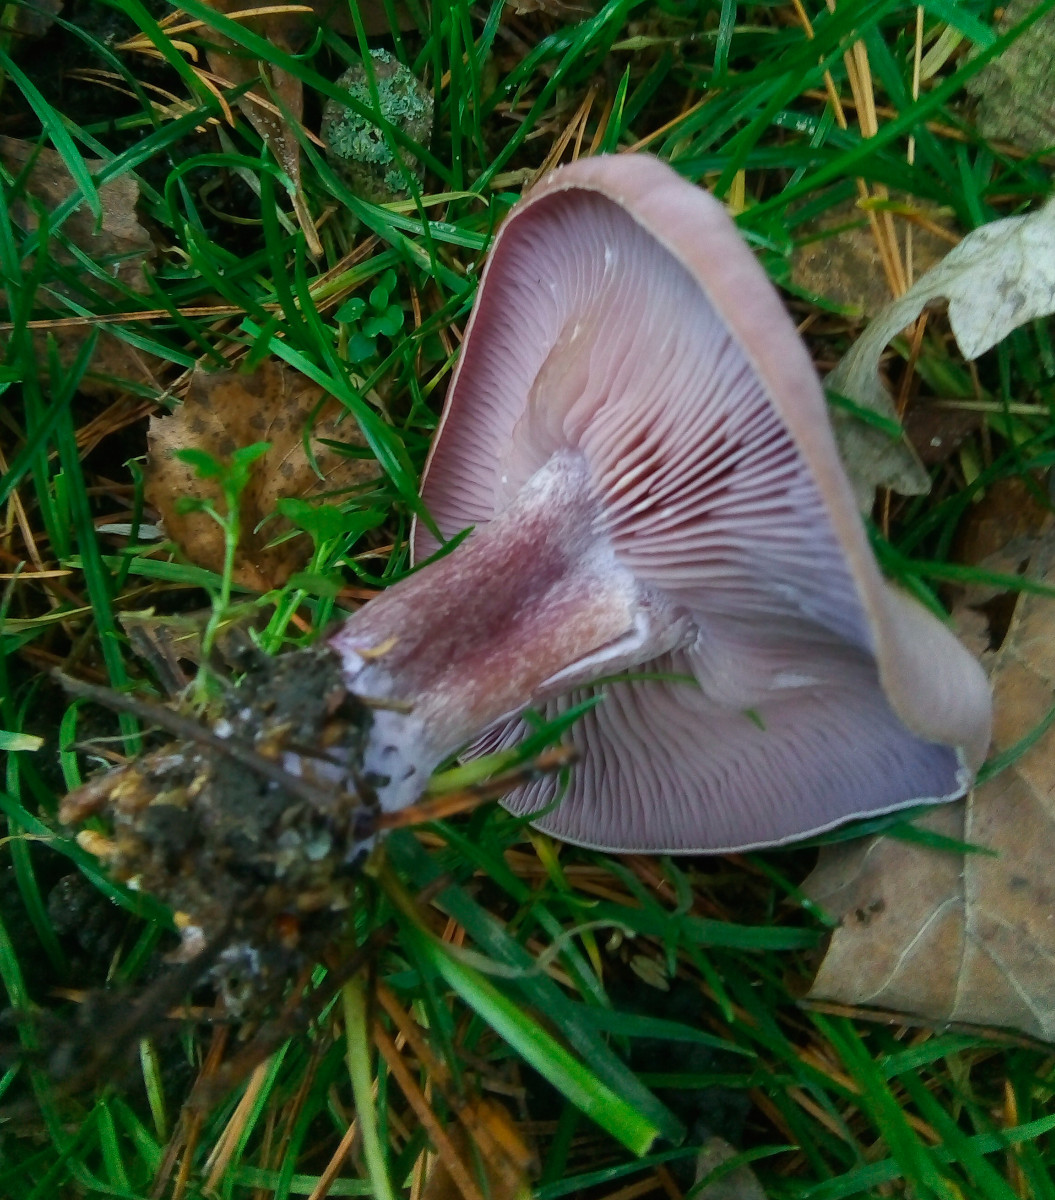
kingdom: Fungi
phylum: Basidiomycota
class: Agaricomycetes
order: Agaricales
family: Tricholomataceae
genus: Lepista
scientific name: Lepista nuda
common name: violet hekseringshat
